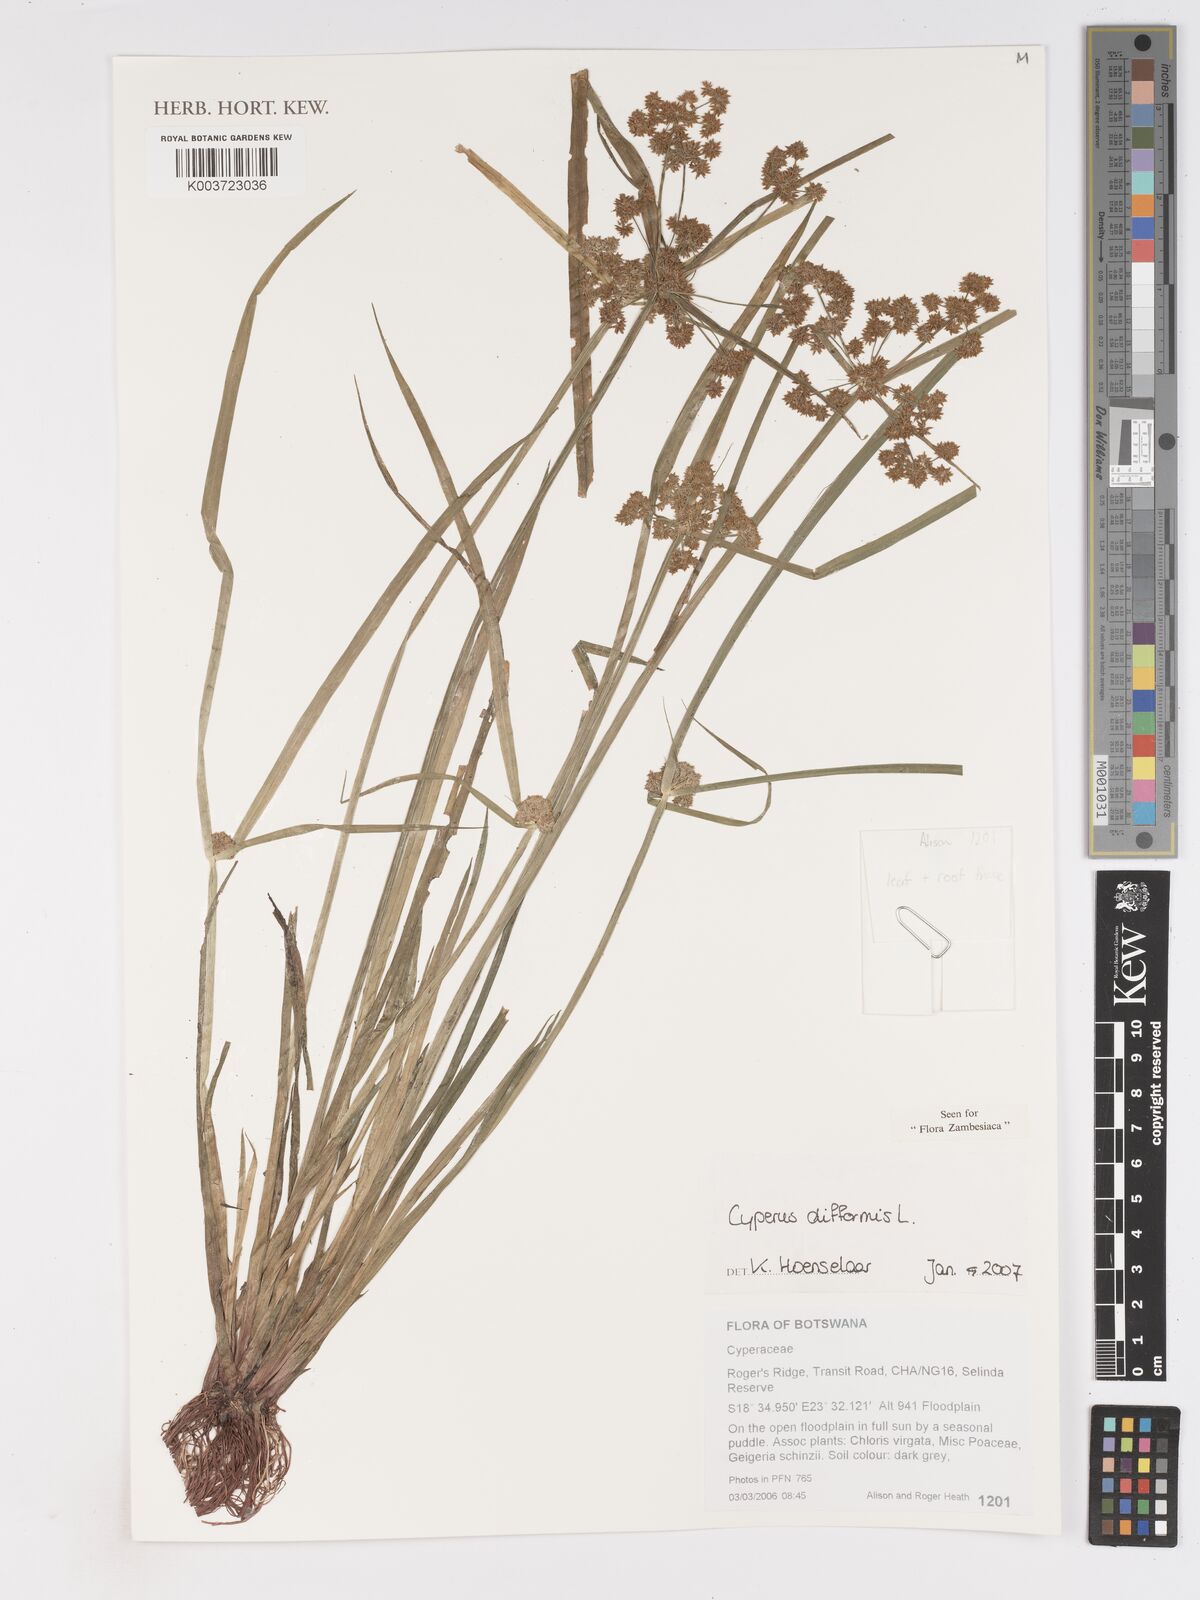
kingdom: Plantae
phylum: Tracheophyta
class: Liliopsida
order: Poales
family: Cyperaceae
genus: Cyperus
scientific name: Cyperus difformis
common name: Variable flatsedge
